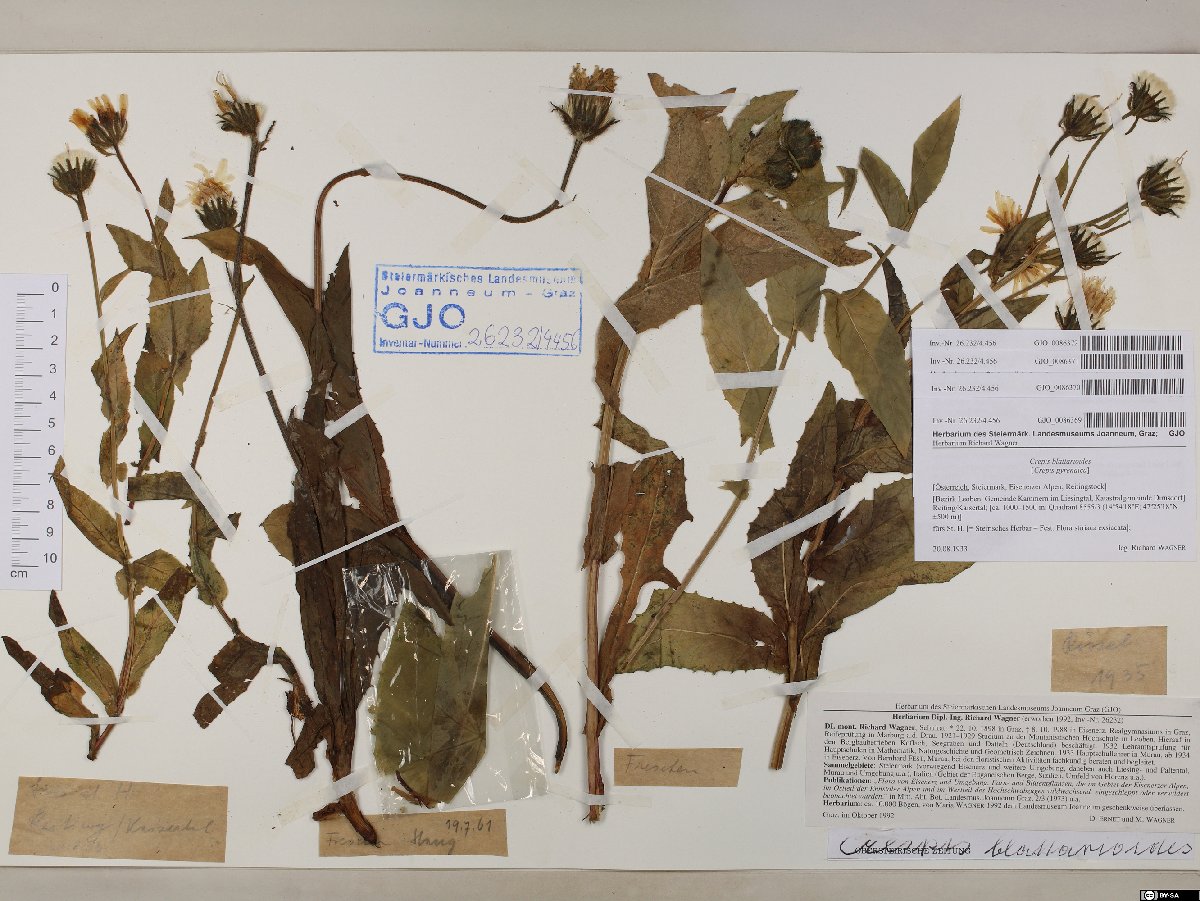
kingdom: Plantae
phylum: Tracheophyta
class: Magnoliopsida
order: Asterales
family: Asteraceae
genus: Crepis
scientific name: Crepis blattarioides
